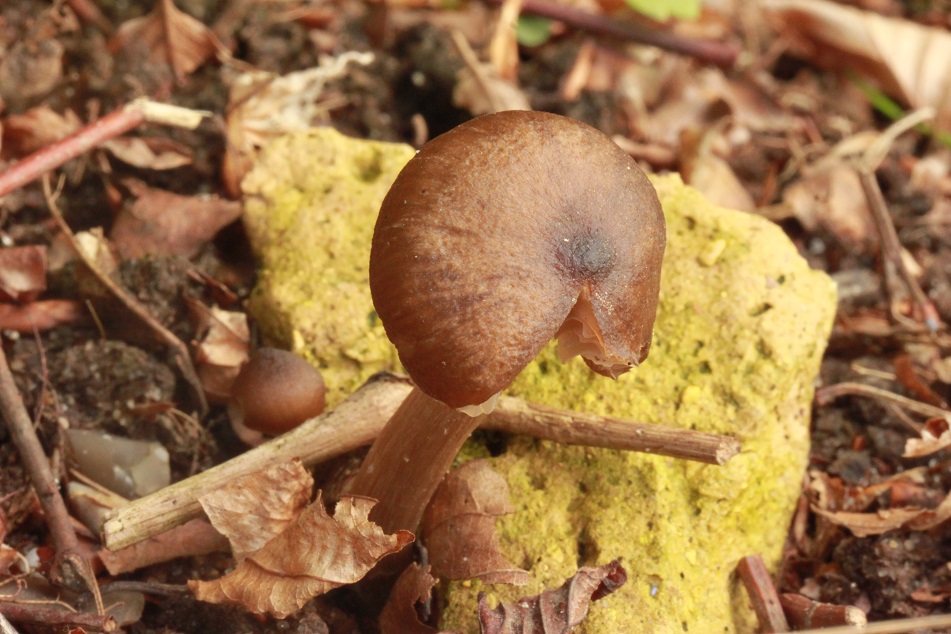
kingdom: Fungi
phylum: Basidiomycota
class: Agaricomycetes
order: Agaricales
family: Entolomataceae
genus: Entoloma
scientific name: Entoloma bryorum
